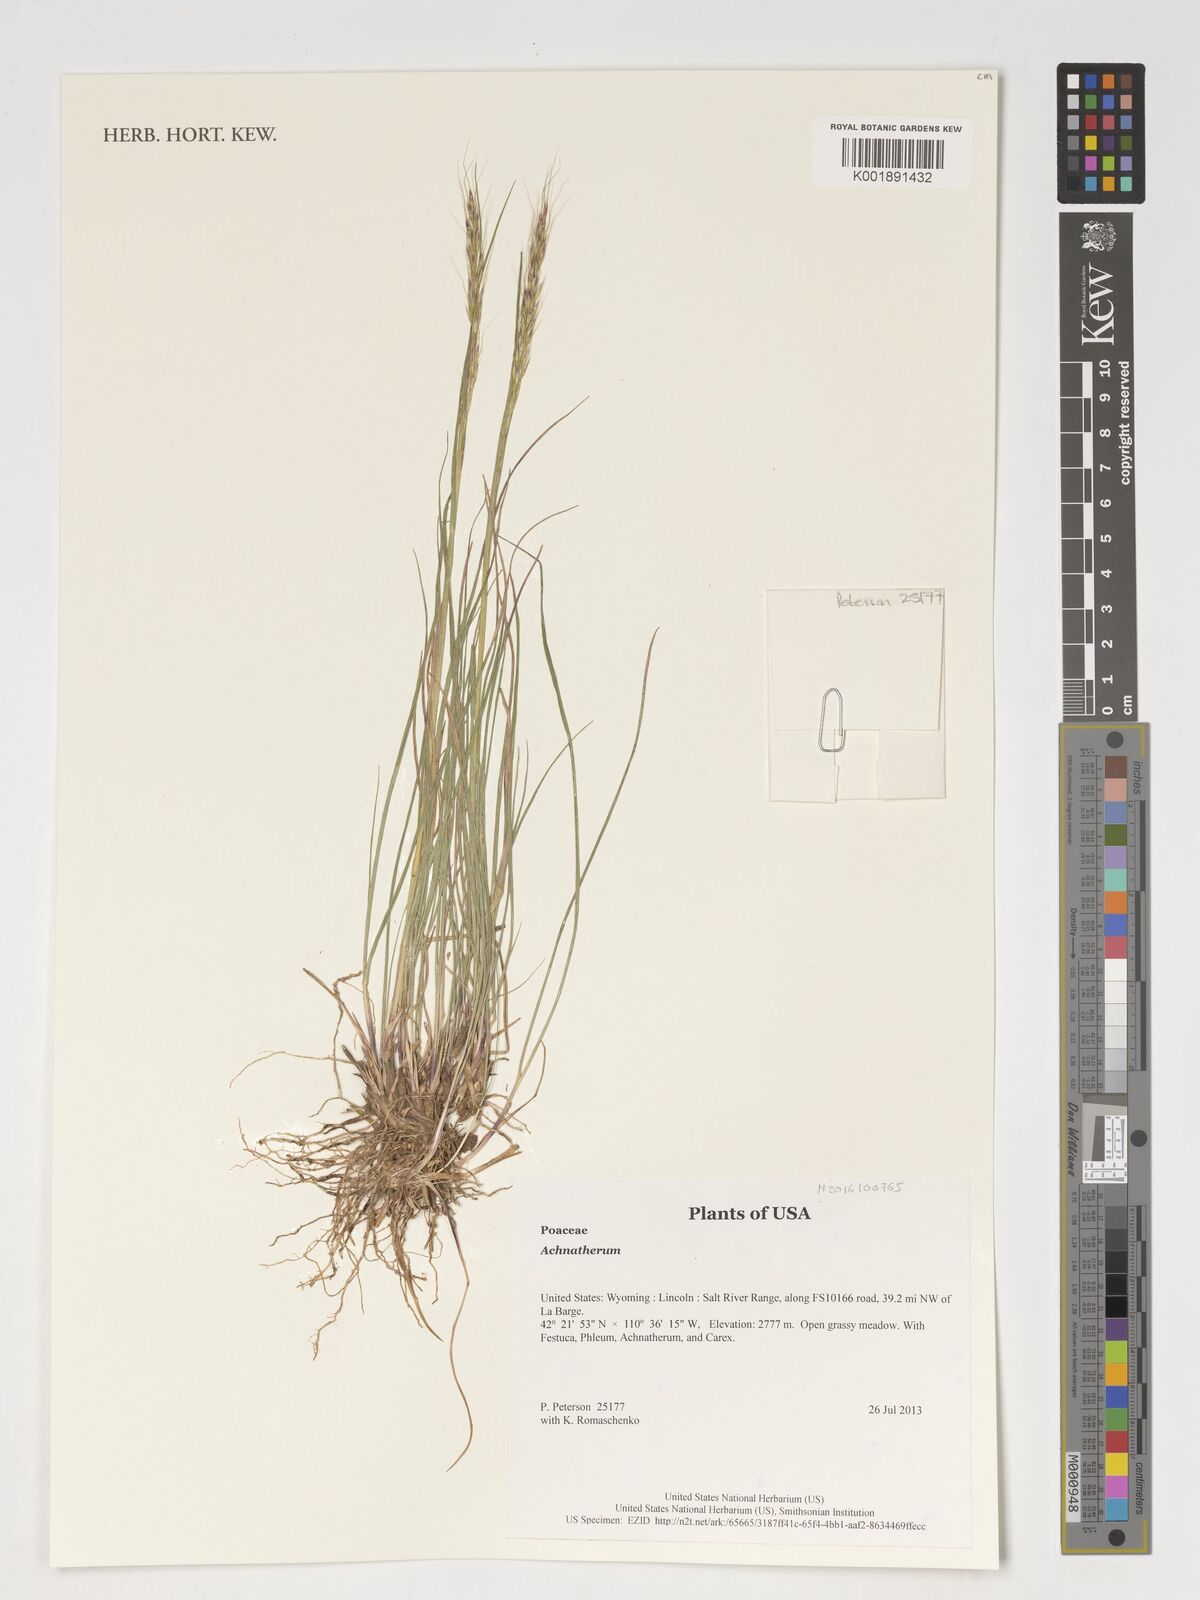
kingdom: Plantae
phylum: Tracheophyta
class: Liliopsida
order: Poales
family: Poaceae
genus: Achnatherum
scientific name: Achnatherum
